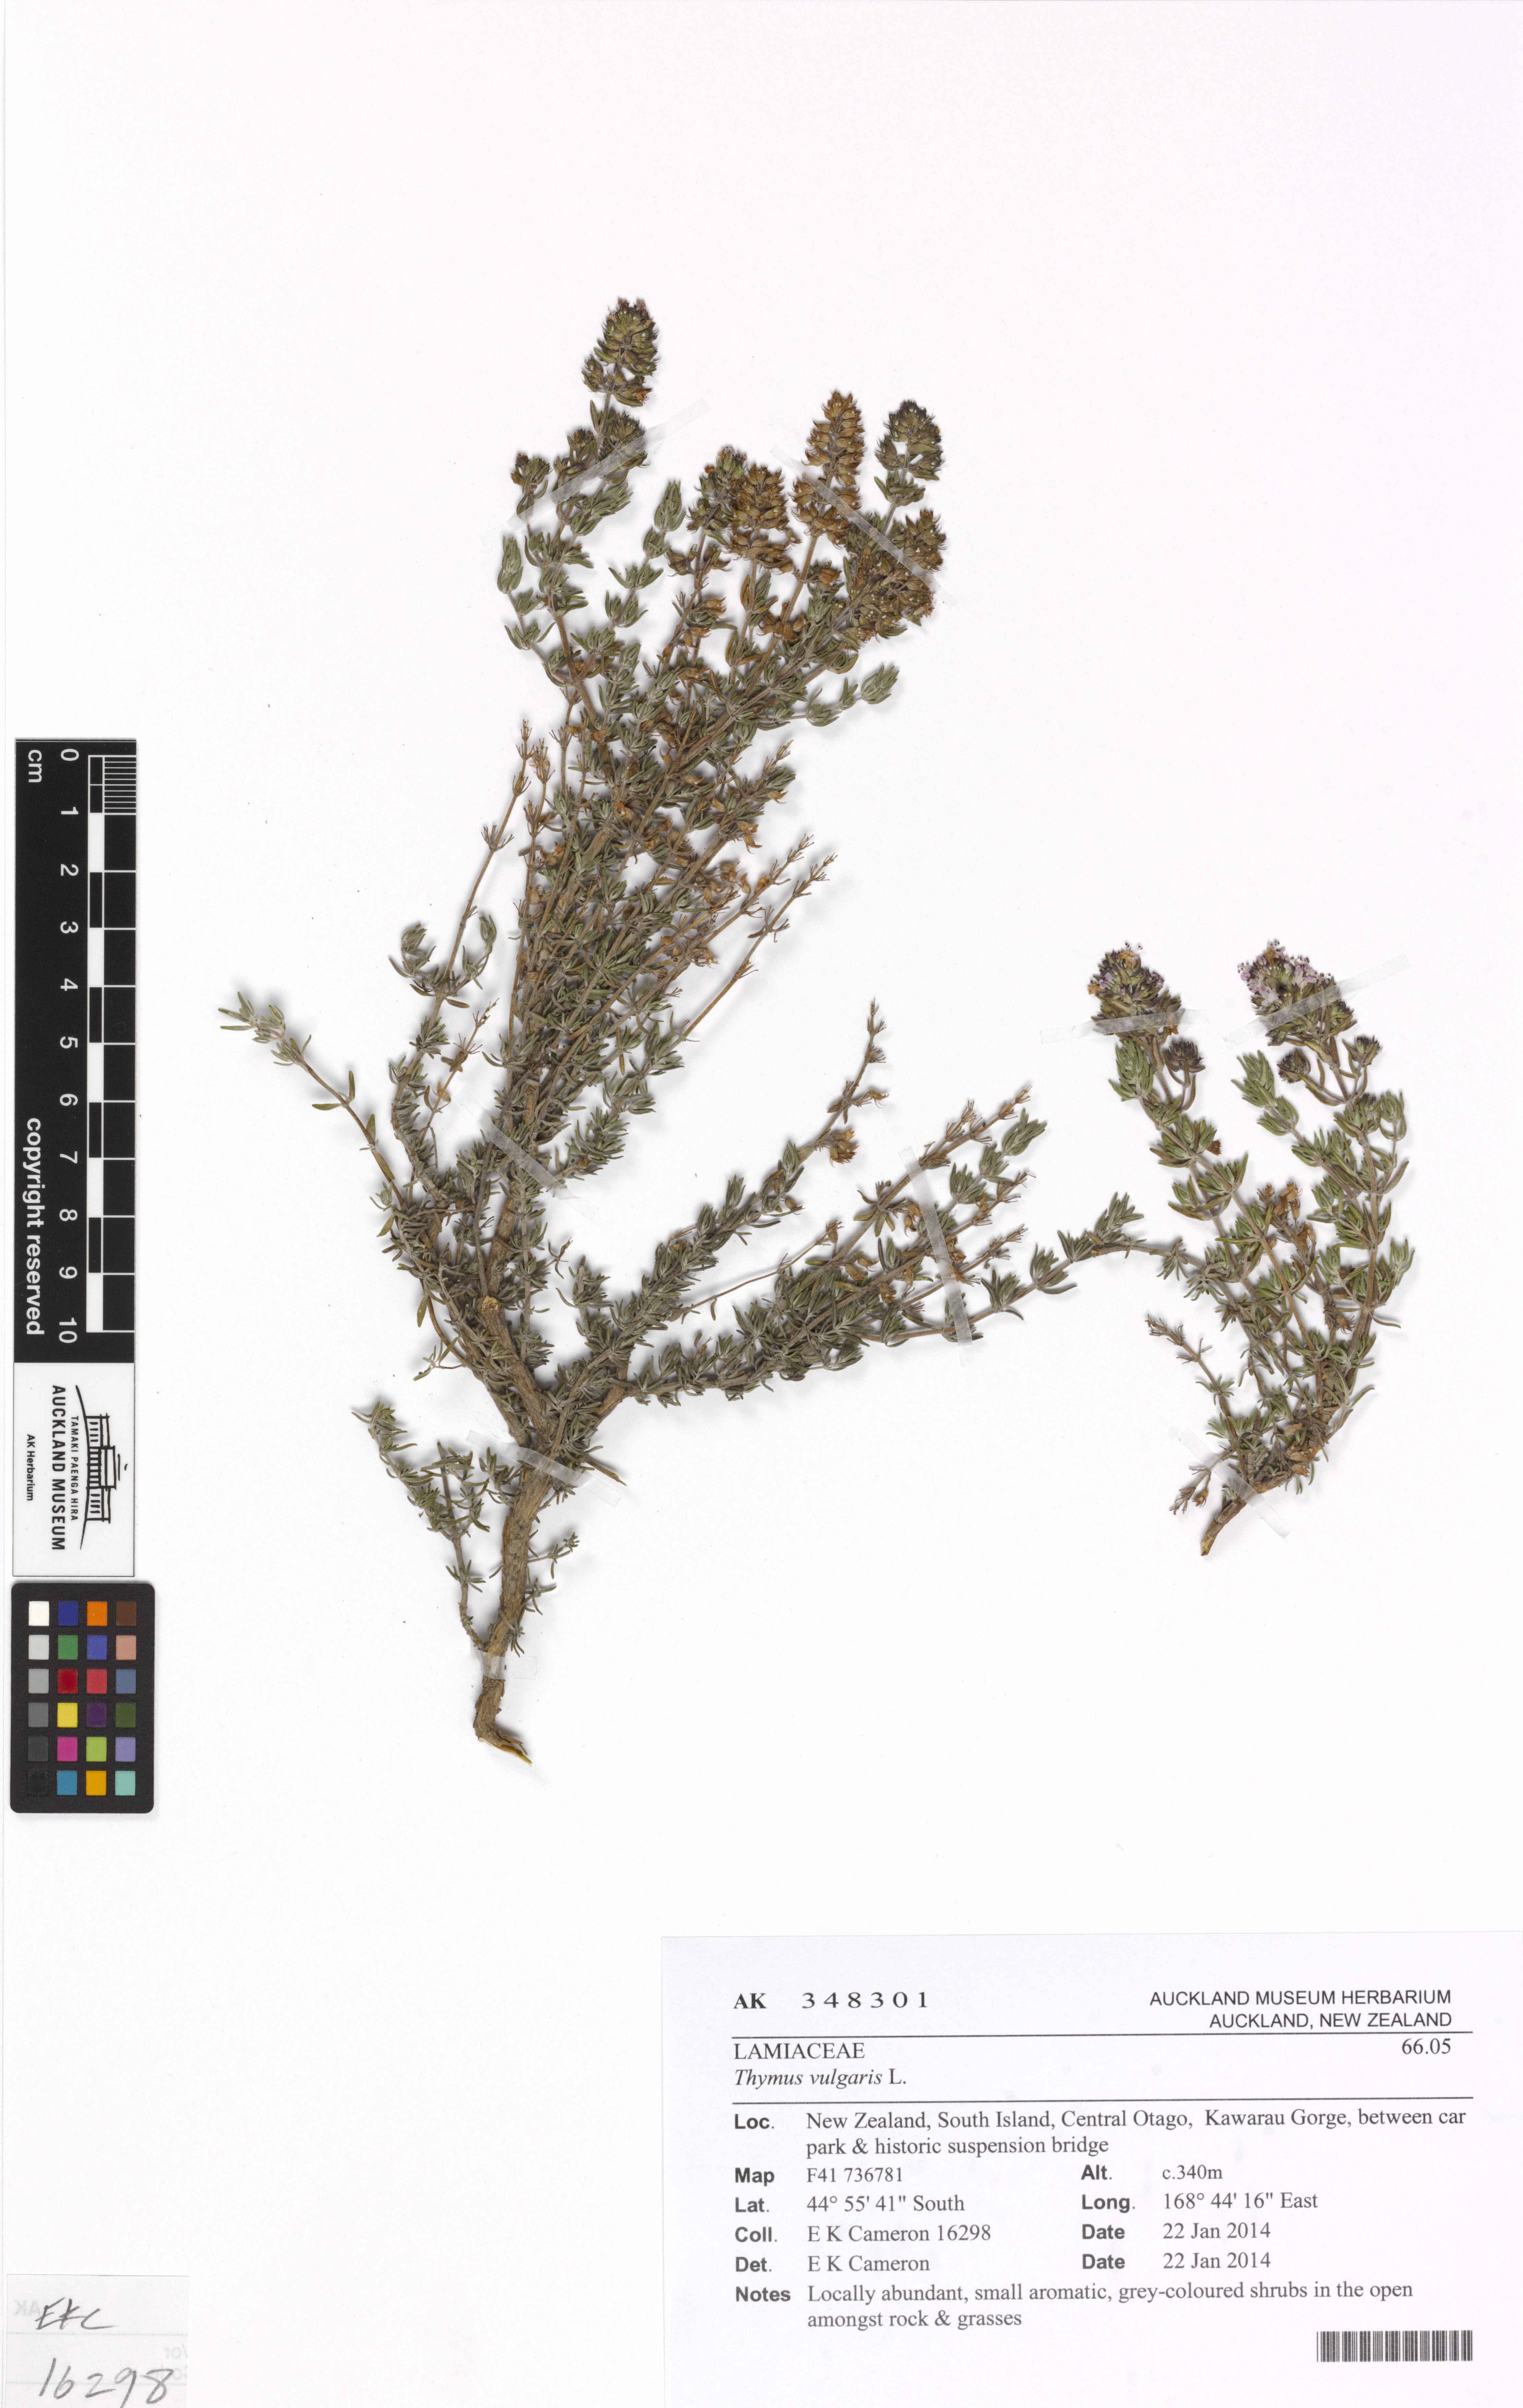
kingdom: Plantae
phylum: Tracheophyta
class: Magnoliopsida
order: Lamiales
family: Lamiaceae
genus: Thymus
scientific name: Thymus vulgaris
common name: Garden thyme
